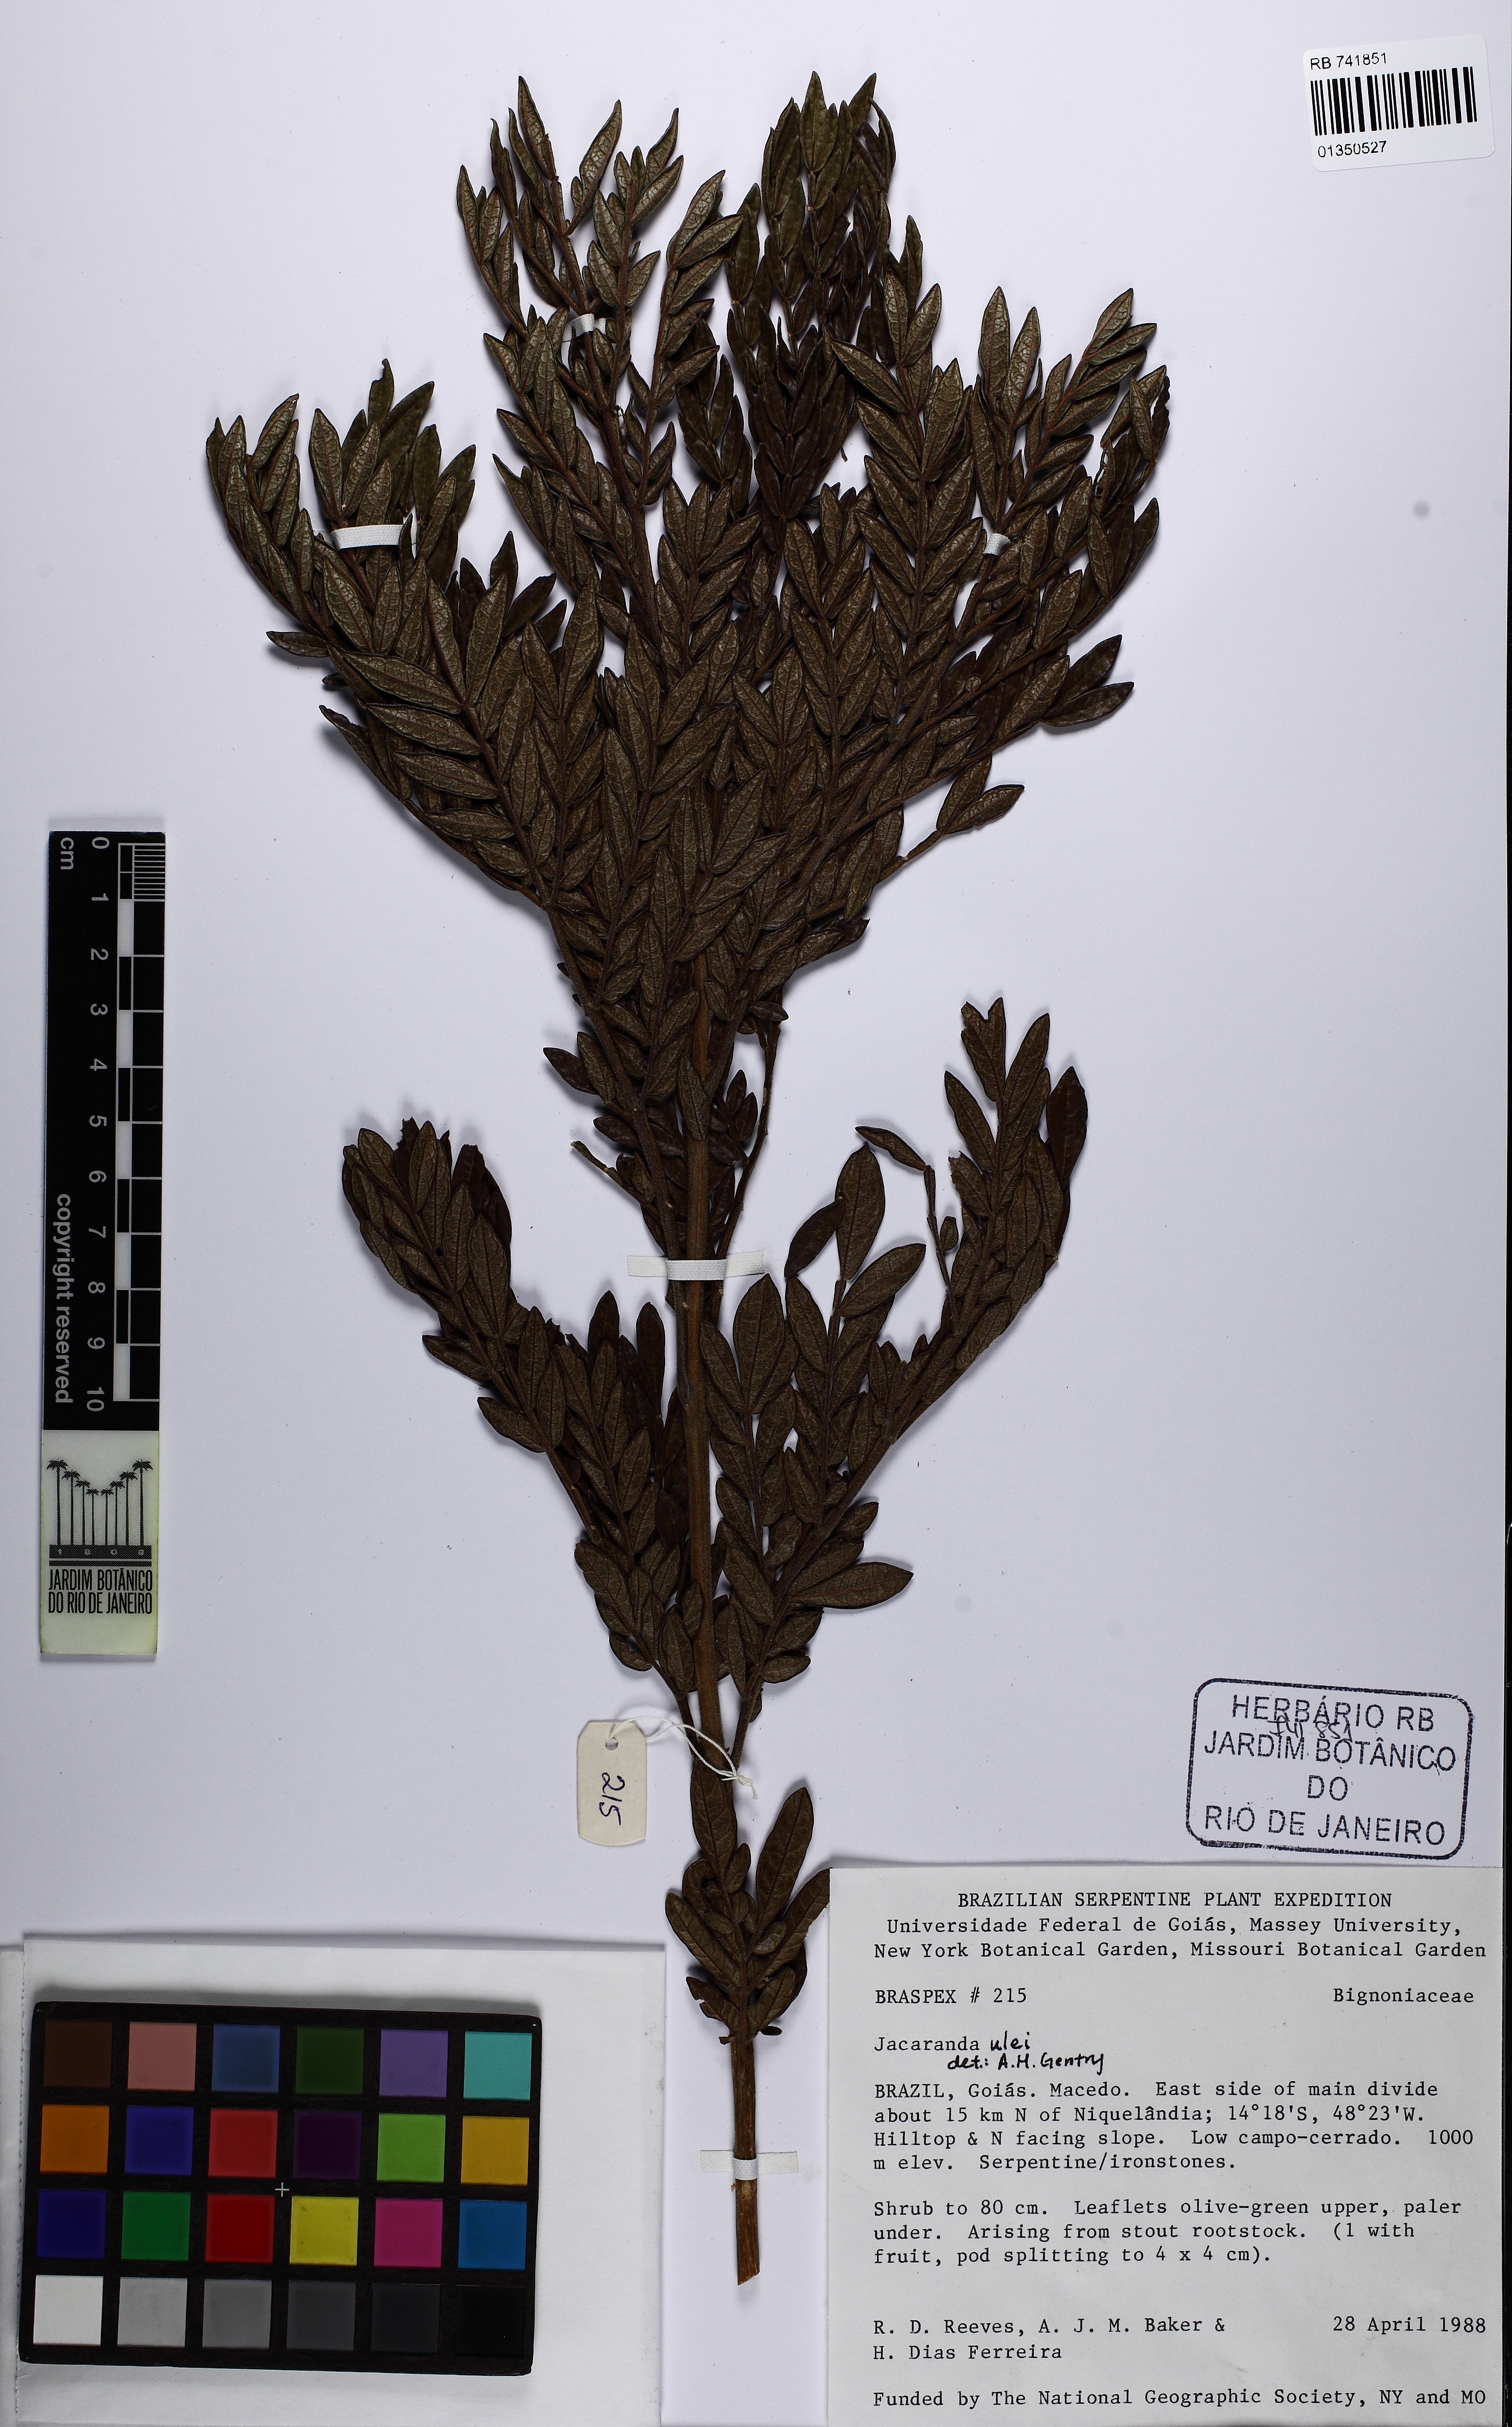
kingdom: Plantae
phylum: Tracheophyta
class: Magnoliopsida
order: Lamiales
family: Bignoniaceae
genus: Jacaranda
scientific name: Jacaranda ulei
